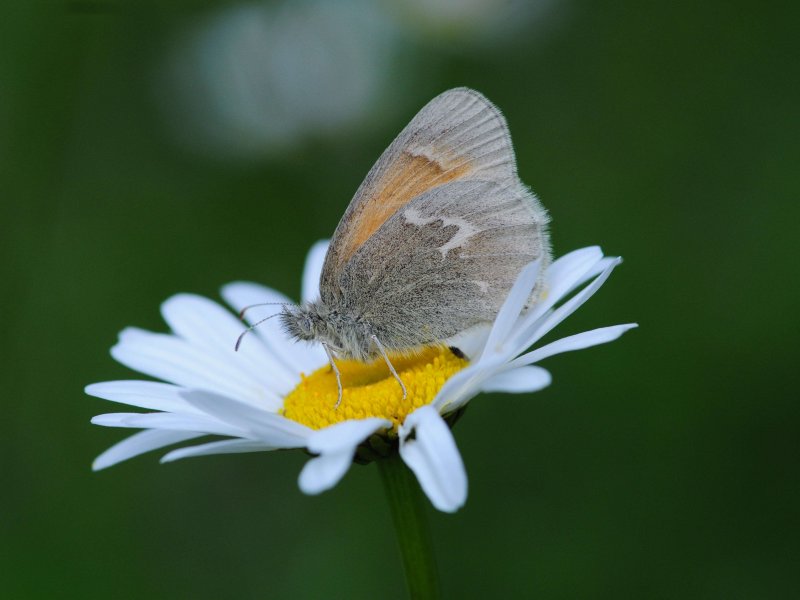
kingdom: Animalia
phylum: Arthropoda
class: Insecta
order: Lepidoptera
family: Nymphalidae
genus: Coenonympha
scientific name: Coenonympha tullia
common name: Large Heath
